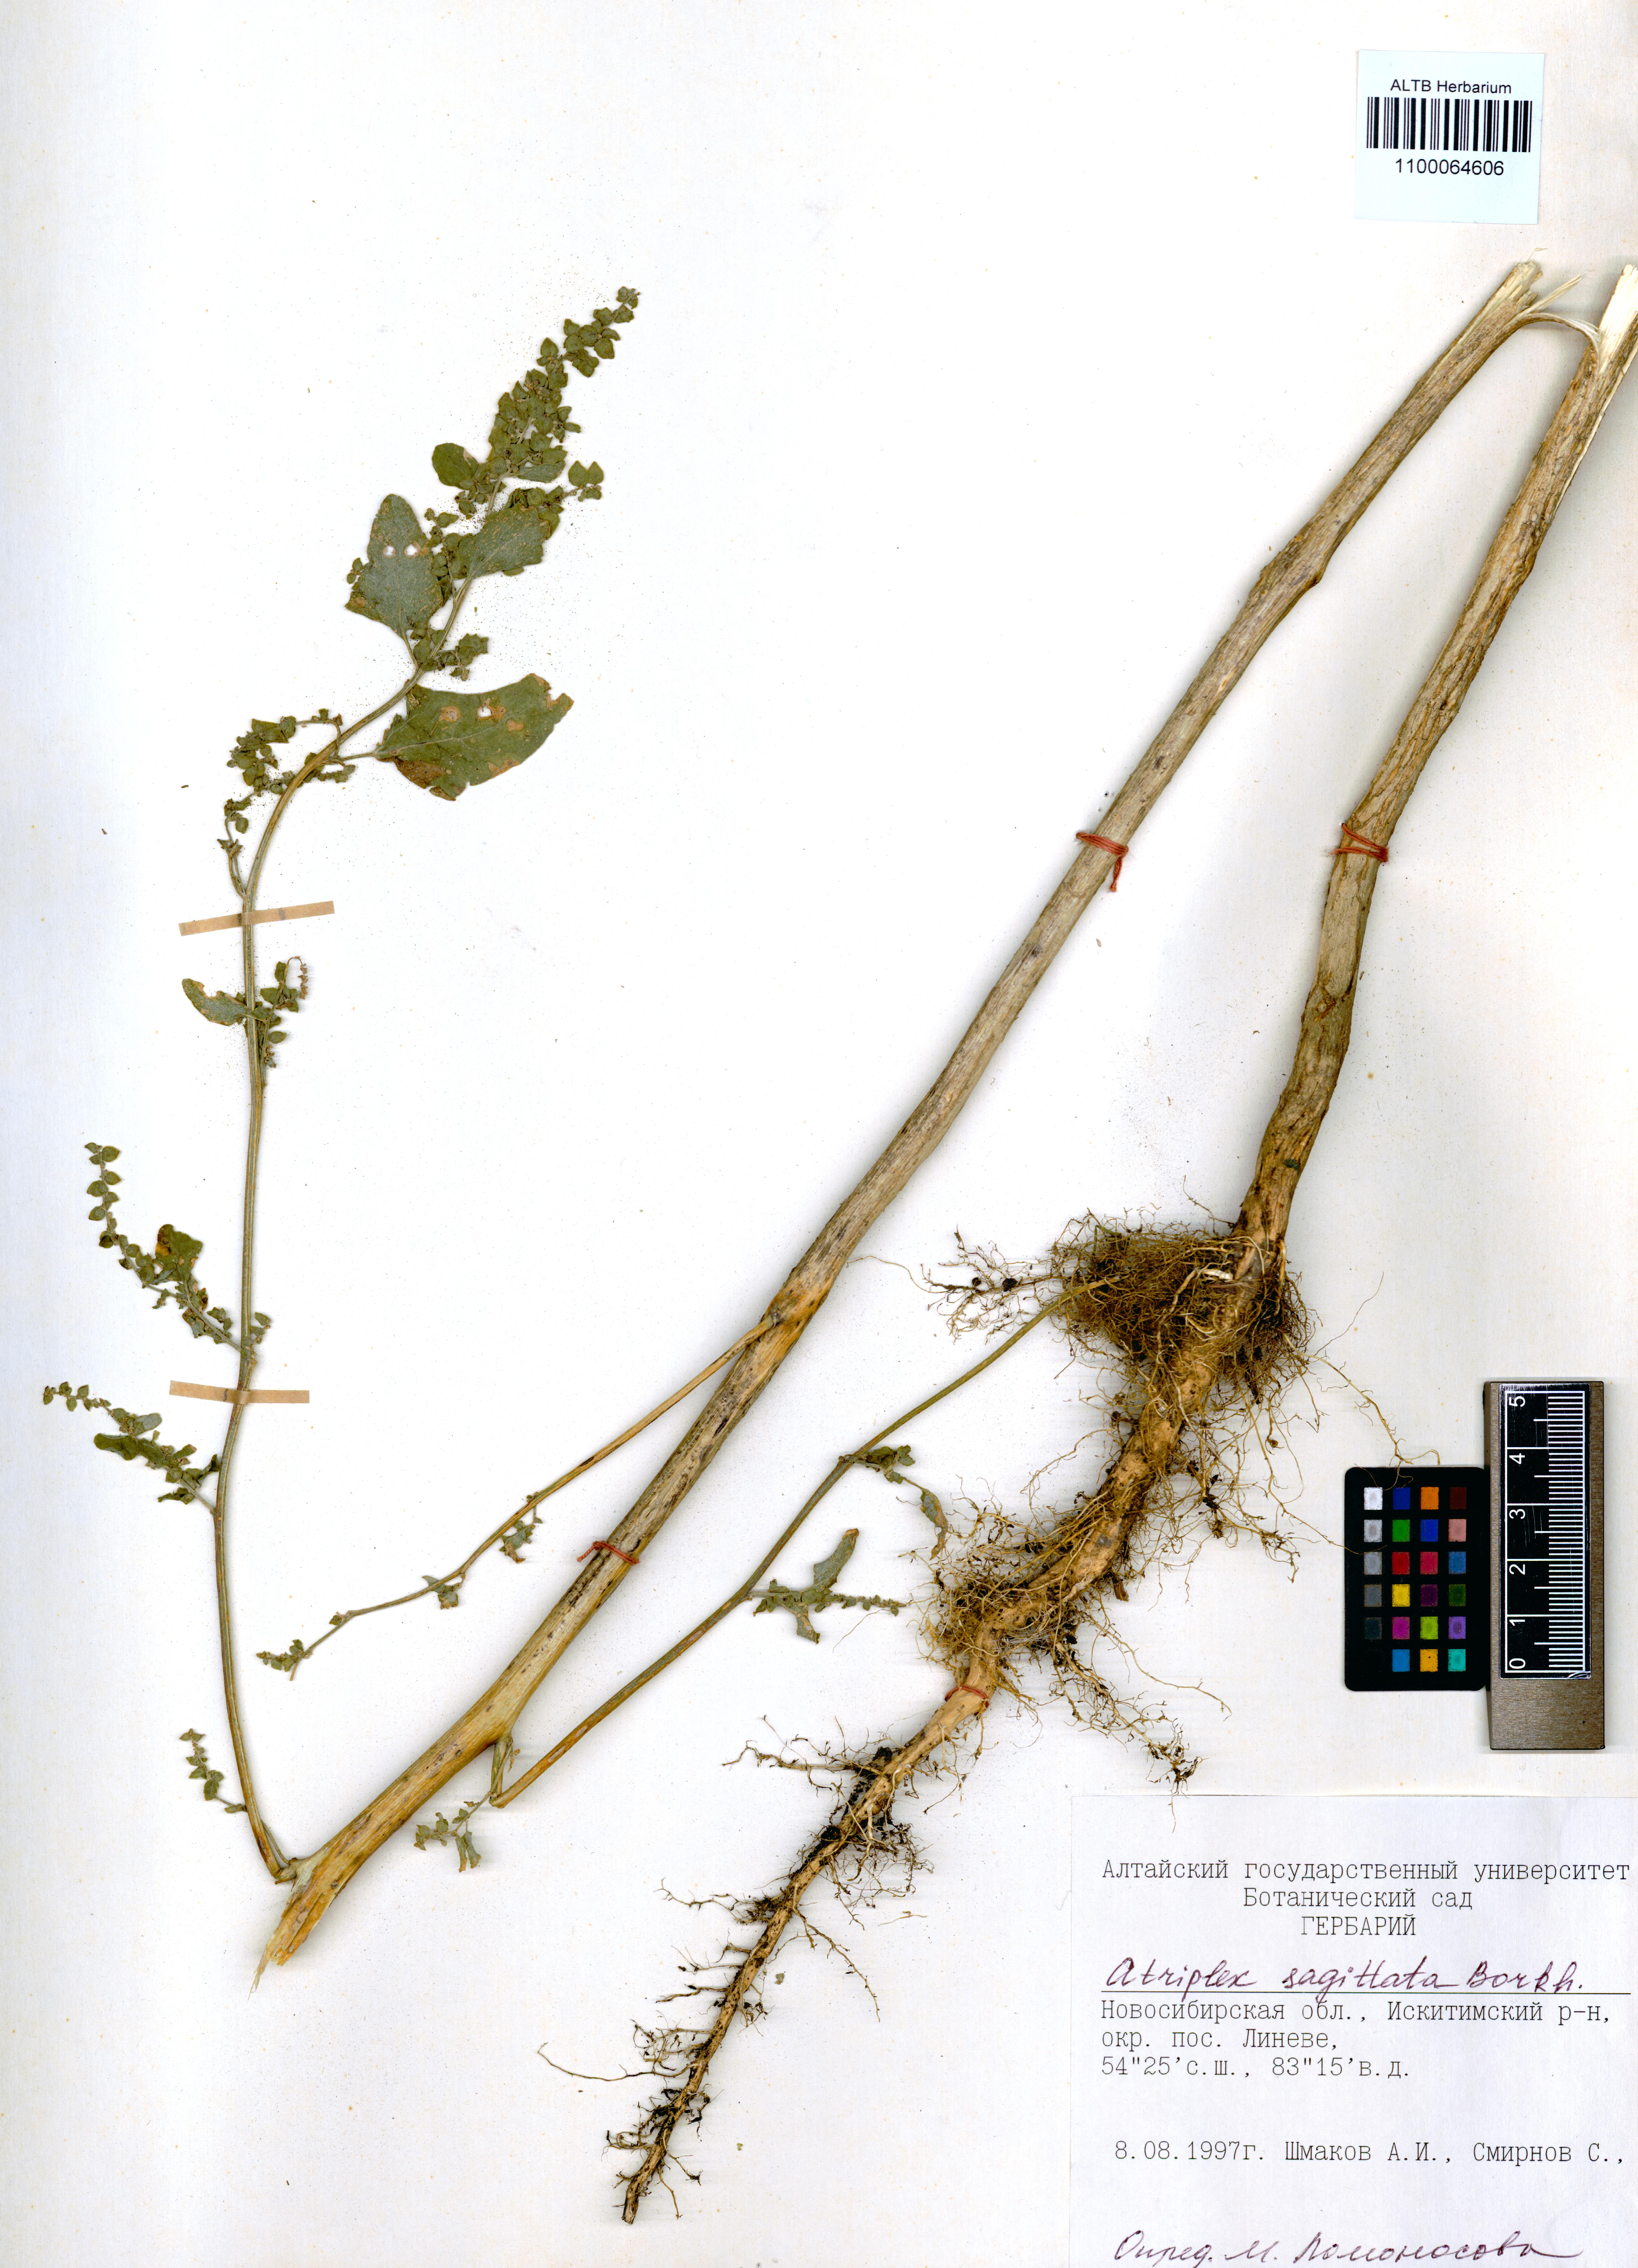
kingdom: Plantae
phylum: Tracheophyta
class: Magnoliopsida
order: Caryophyllales
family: Amaranthaceae
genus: Atriplex
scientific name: Atriplex sagittata
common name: Purple orache
